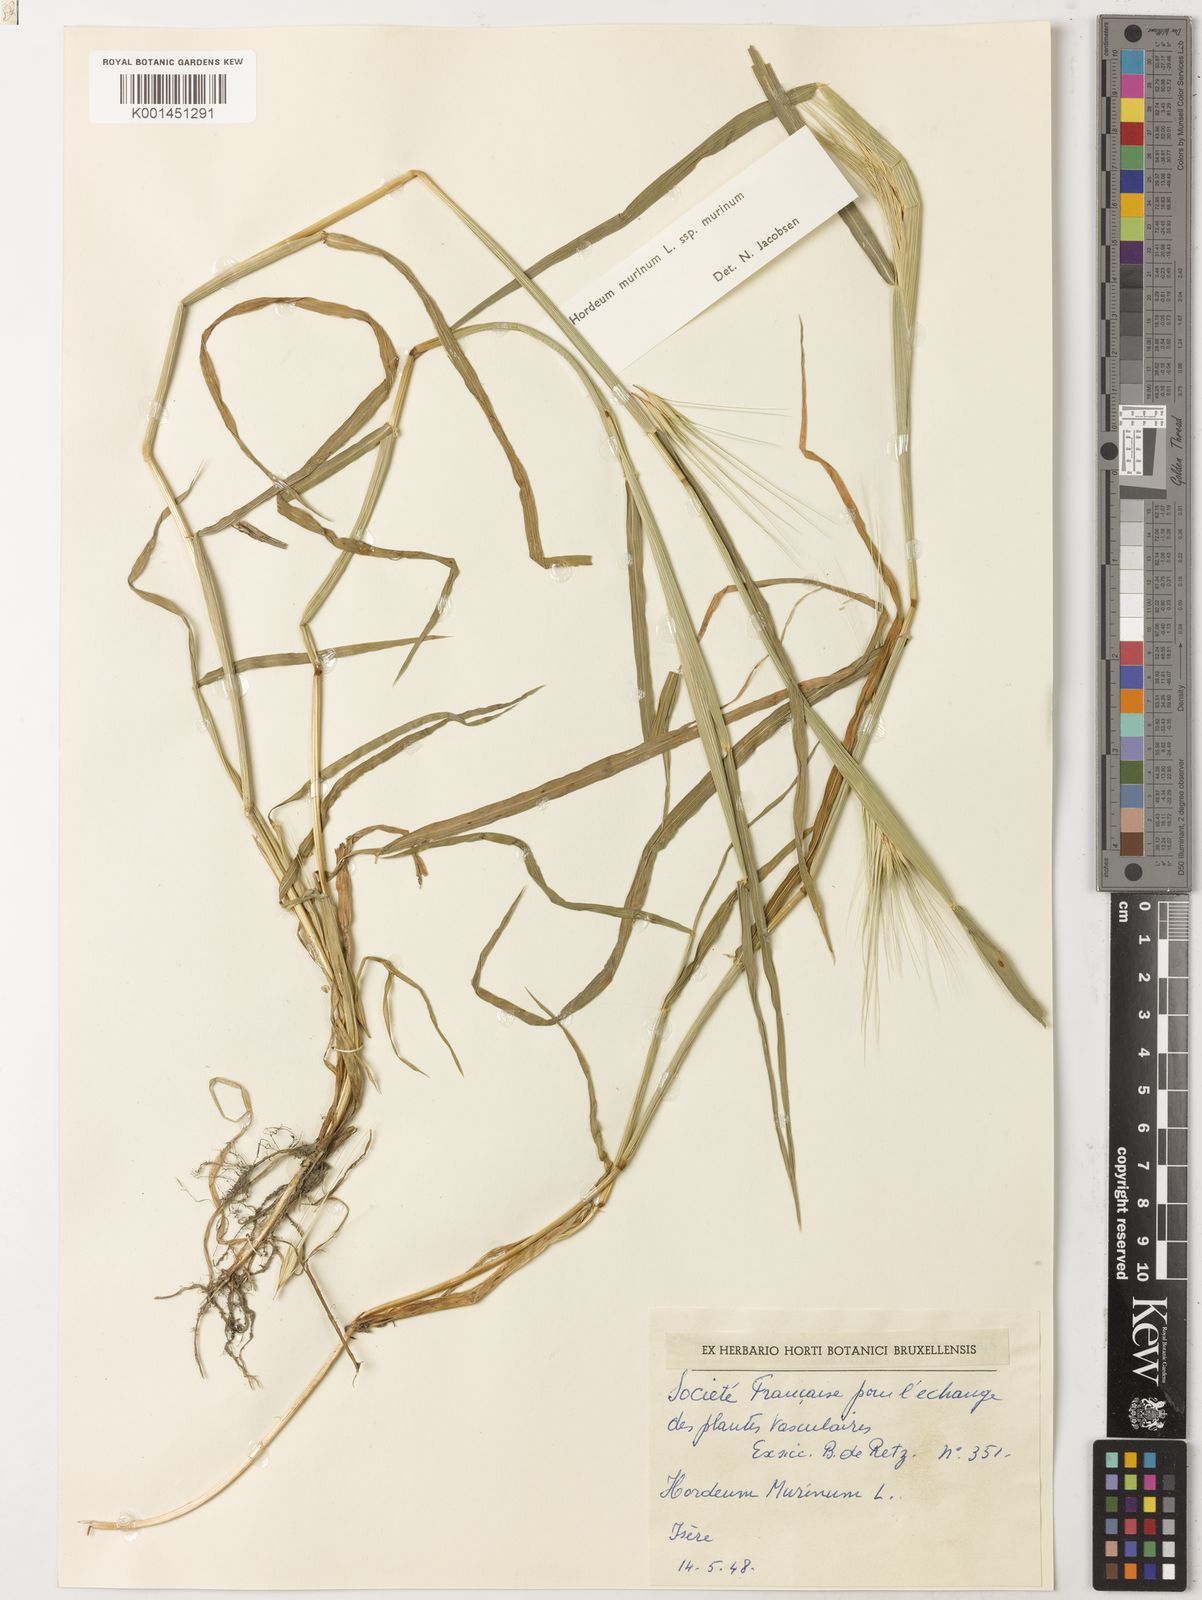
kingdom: Plantae
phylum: Tracheophyta
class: Liliopsida
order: Poales
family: Poaceae
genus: Hordeum
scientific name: Hordeum murinum
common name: Wall barley
